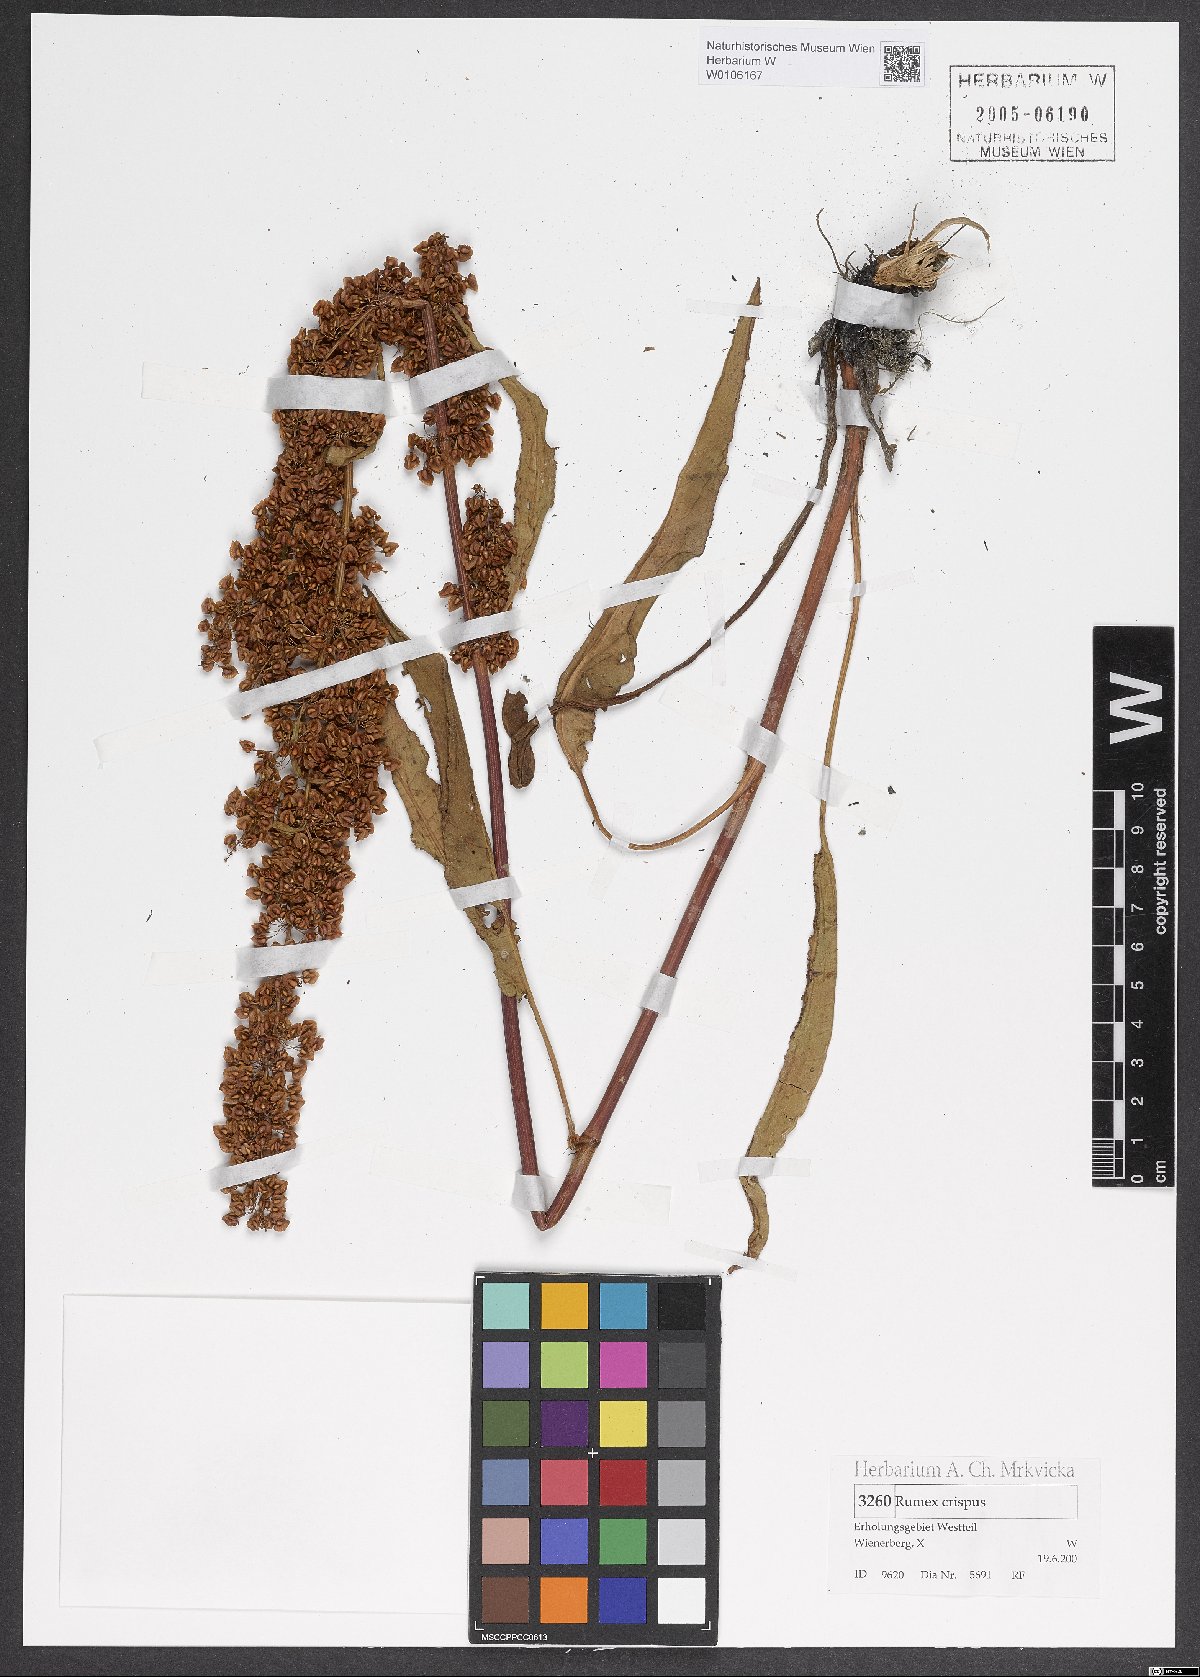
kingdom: Plantae
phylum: Tracheophyta
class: Magnoliopsida
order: Caryophyllales
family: Polygonaceae
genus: Rumex
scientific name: Rumex crispus
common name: Curled dock
